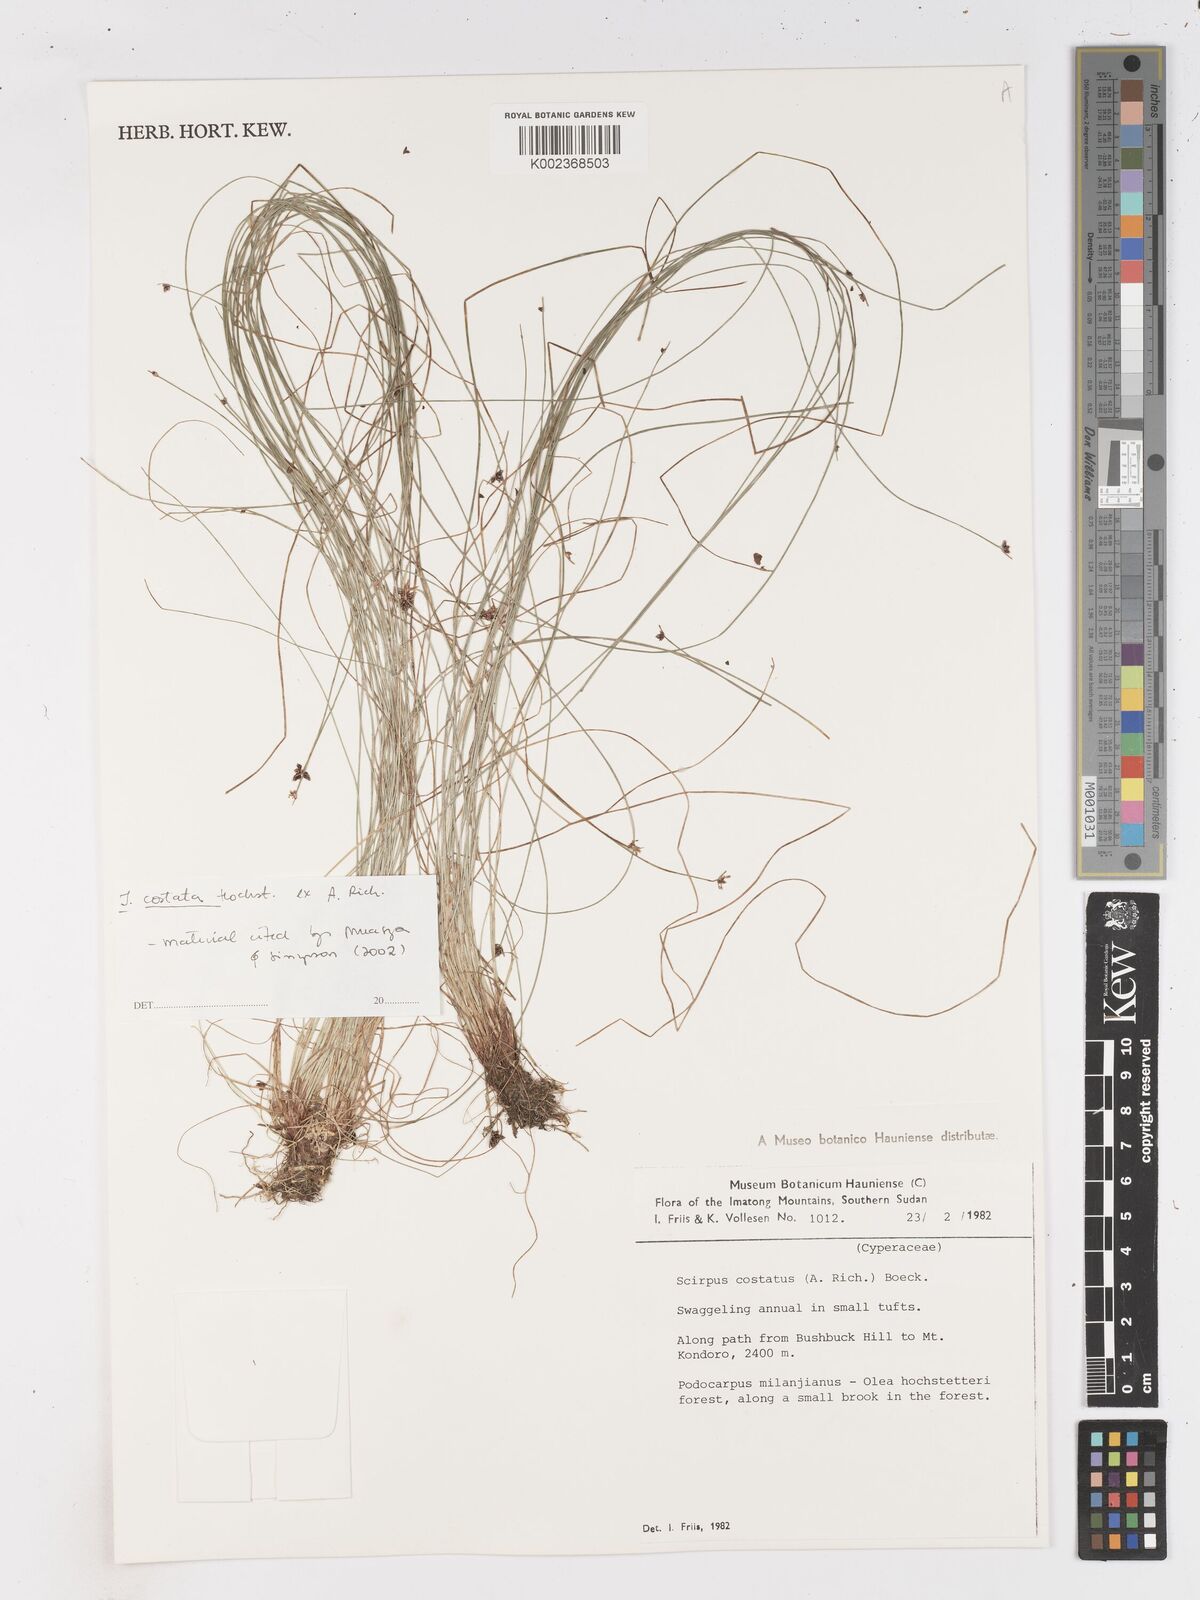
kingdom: Plantae
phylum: Tracheophyta
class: Liliopsida
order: Poales
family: Cyperaceae
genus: Isolepis
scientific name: Isolepis costata
